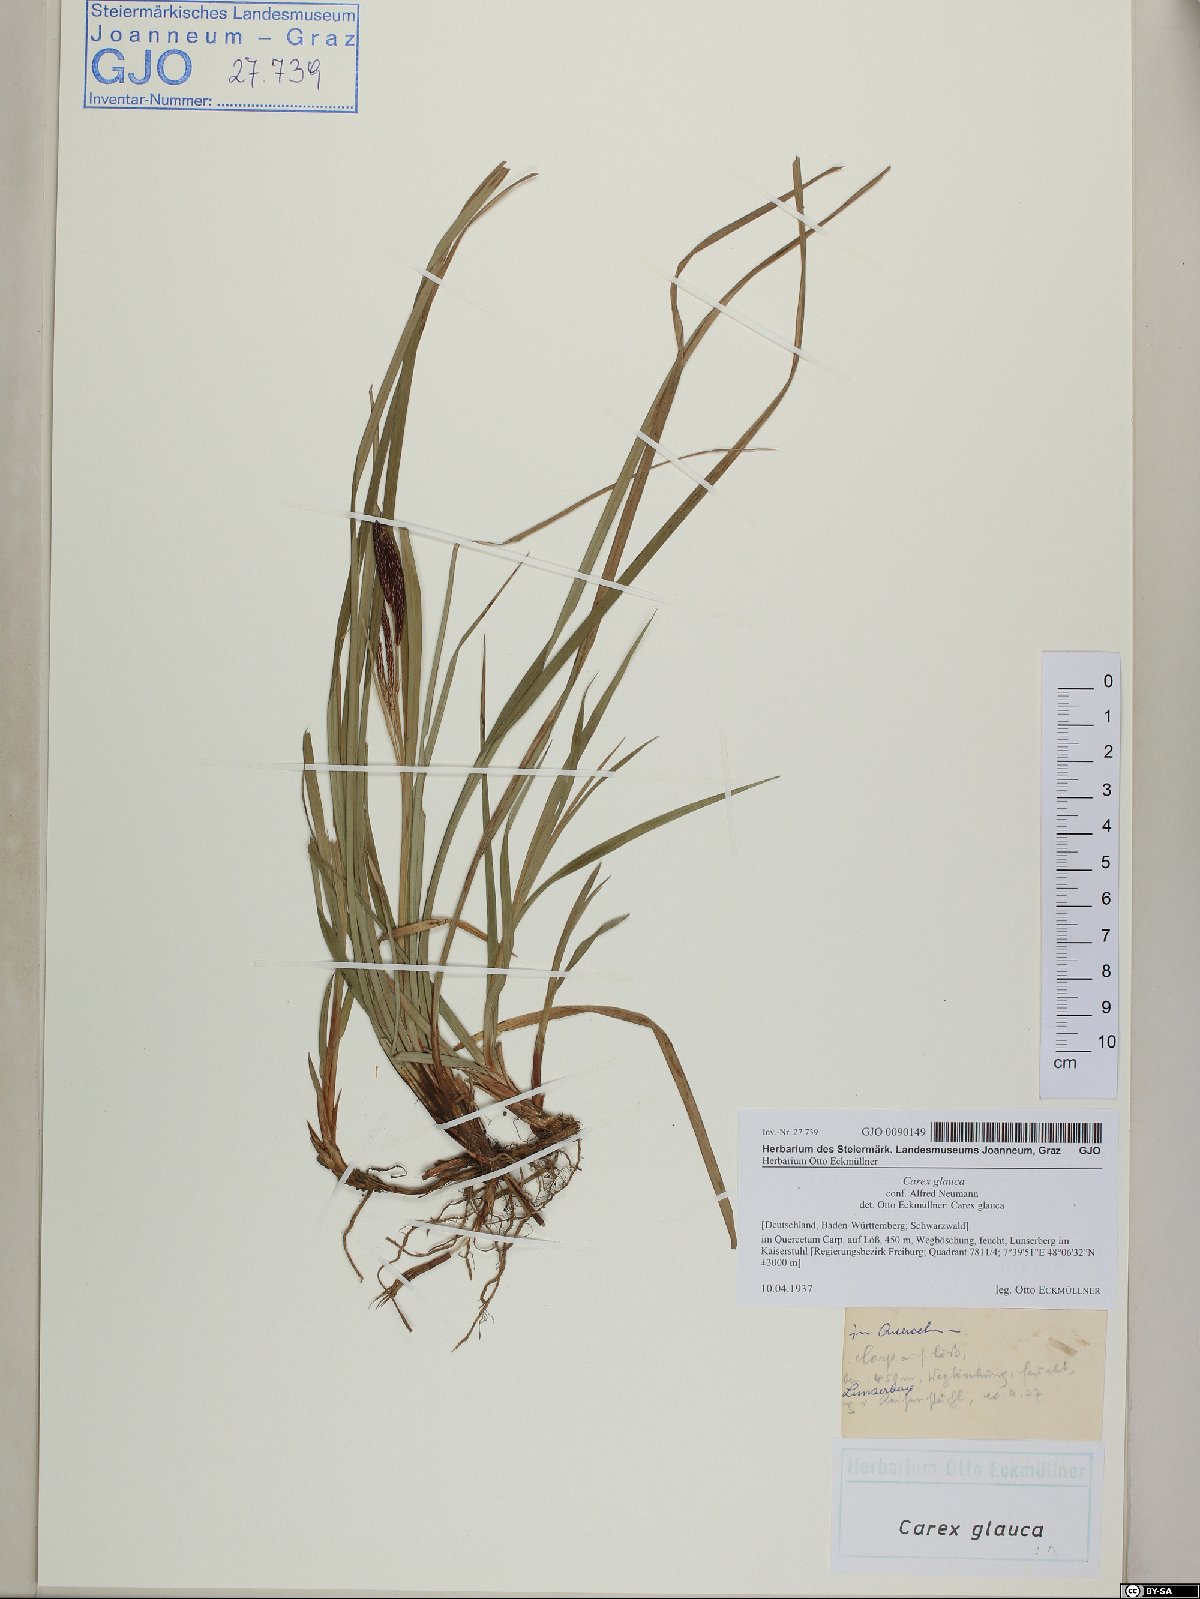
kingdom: Plantae
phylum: Tracheophyta
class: Liliopsida
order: Poales
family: Cyperaceae
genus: Carex
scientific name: Carex flacca
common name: Glaucous sedge
